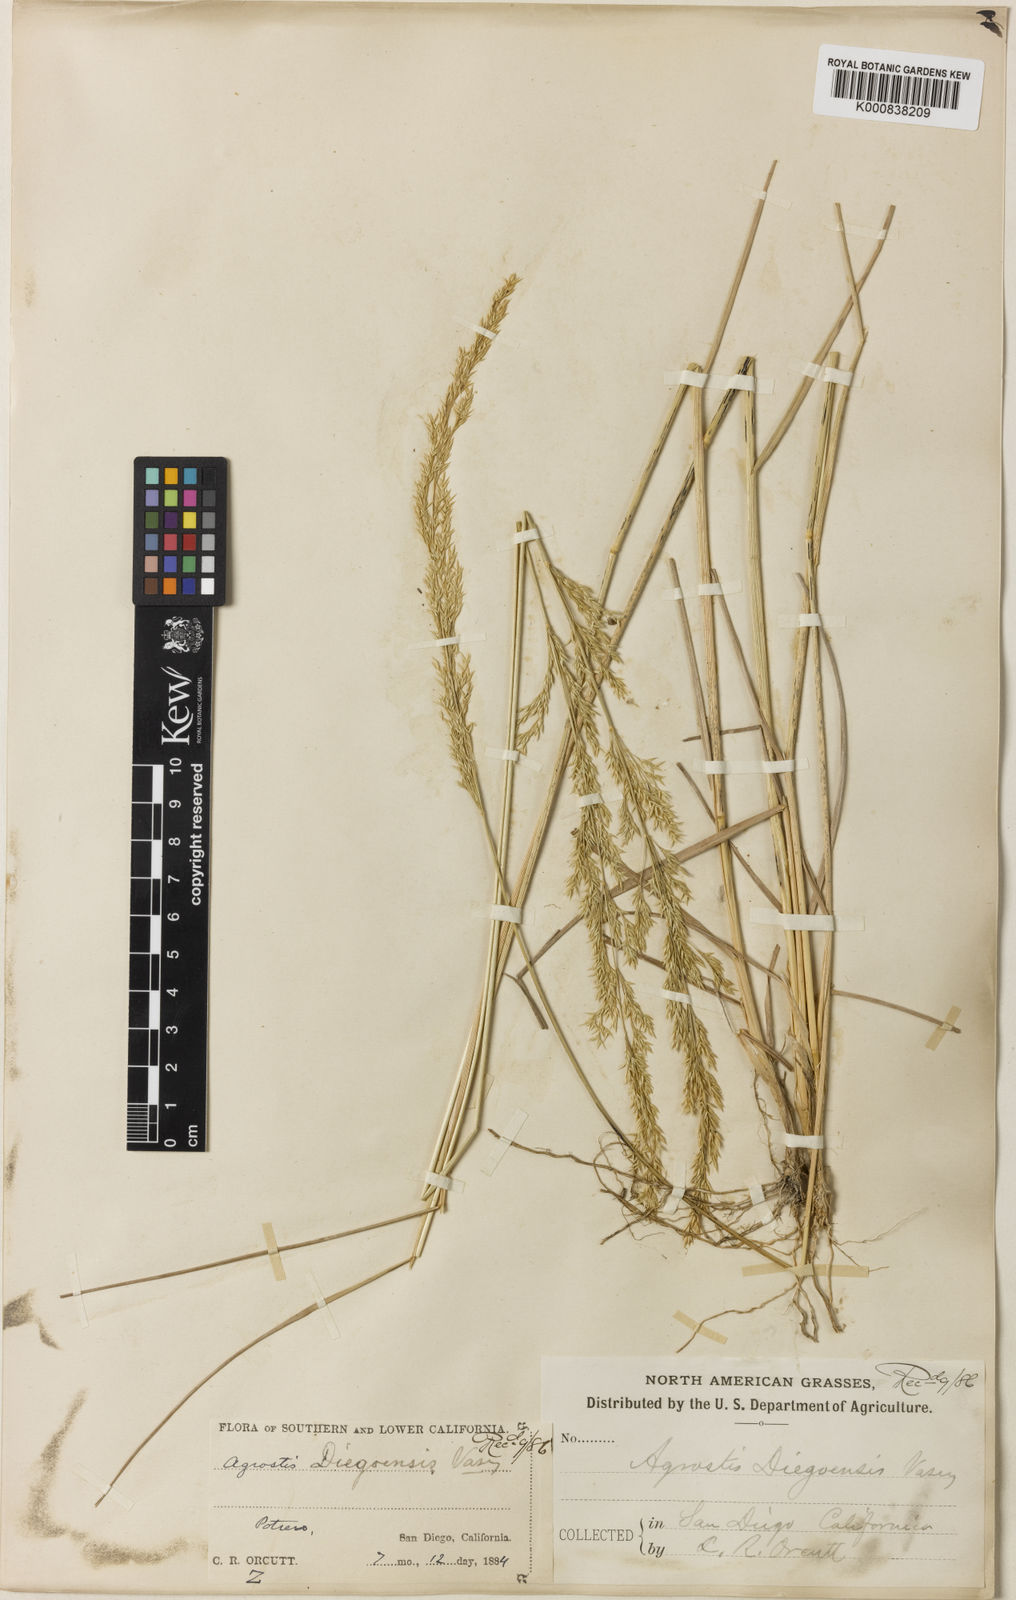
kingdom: Plantae
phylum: Tracheophyta
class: Liliopsida
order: Poales
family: Poaceae
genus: Agrostis
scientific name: Agrostis pallens
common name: Dune bent
